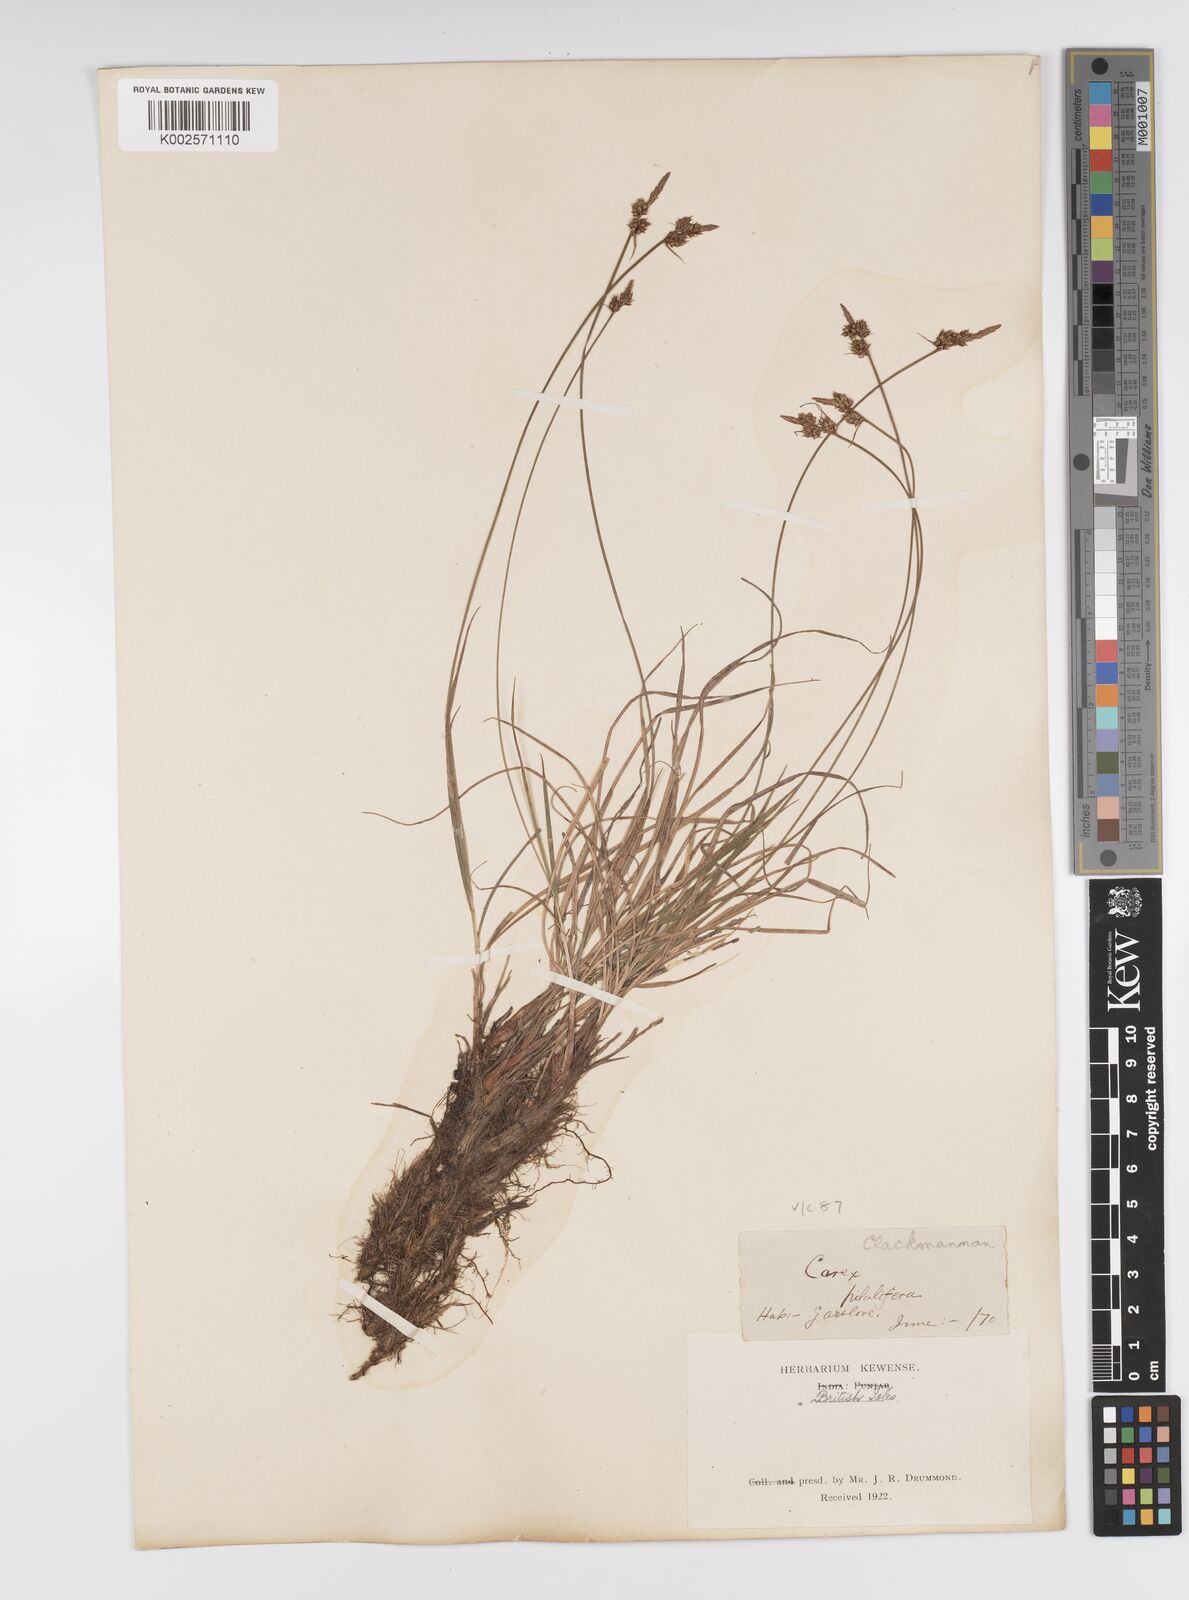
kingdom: Plantae
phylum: Tracheophyta
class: Liliopsida
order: Poales
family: Cyperaceae
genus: Carex
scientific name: Carex pilulifera
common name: Pill sedge
